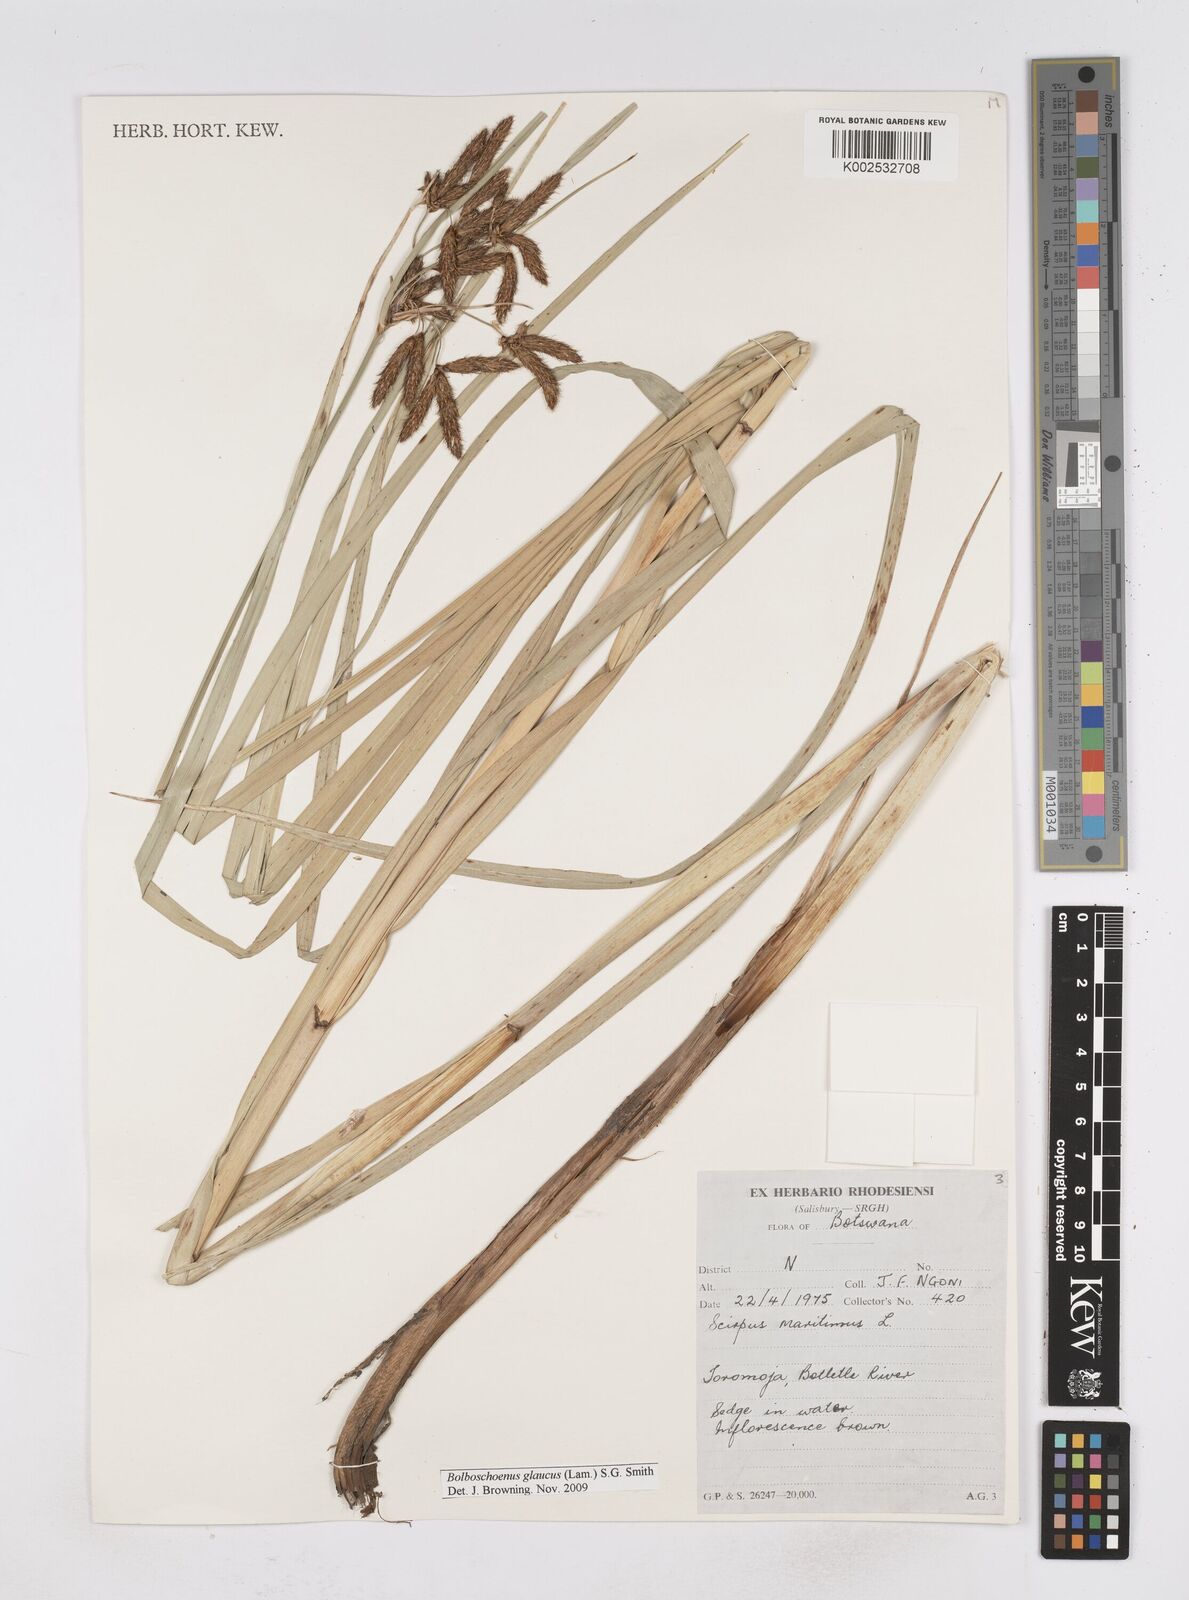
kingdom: Plantae
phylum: Tracheophyta
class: Liliopsida
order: Poales
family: Cyperaceae
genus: Bolboschoenus
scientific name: Bolboschoenus glaucus
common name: Tuberous bulrush
